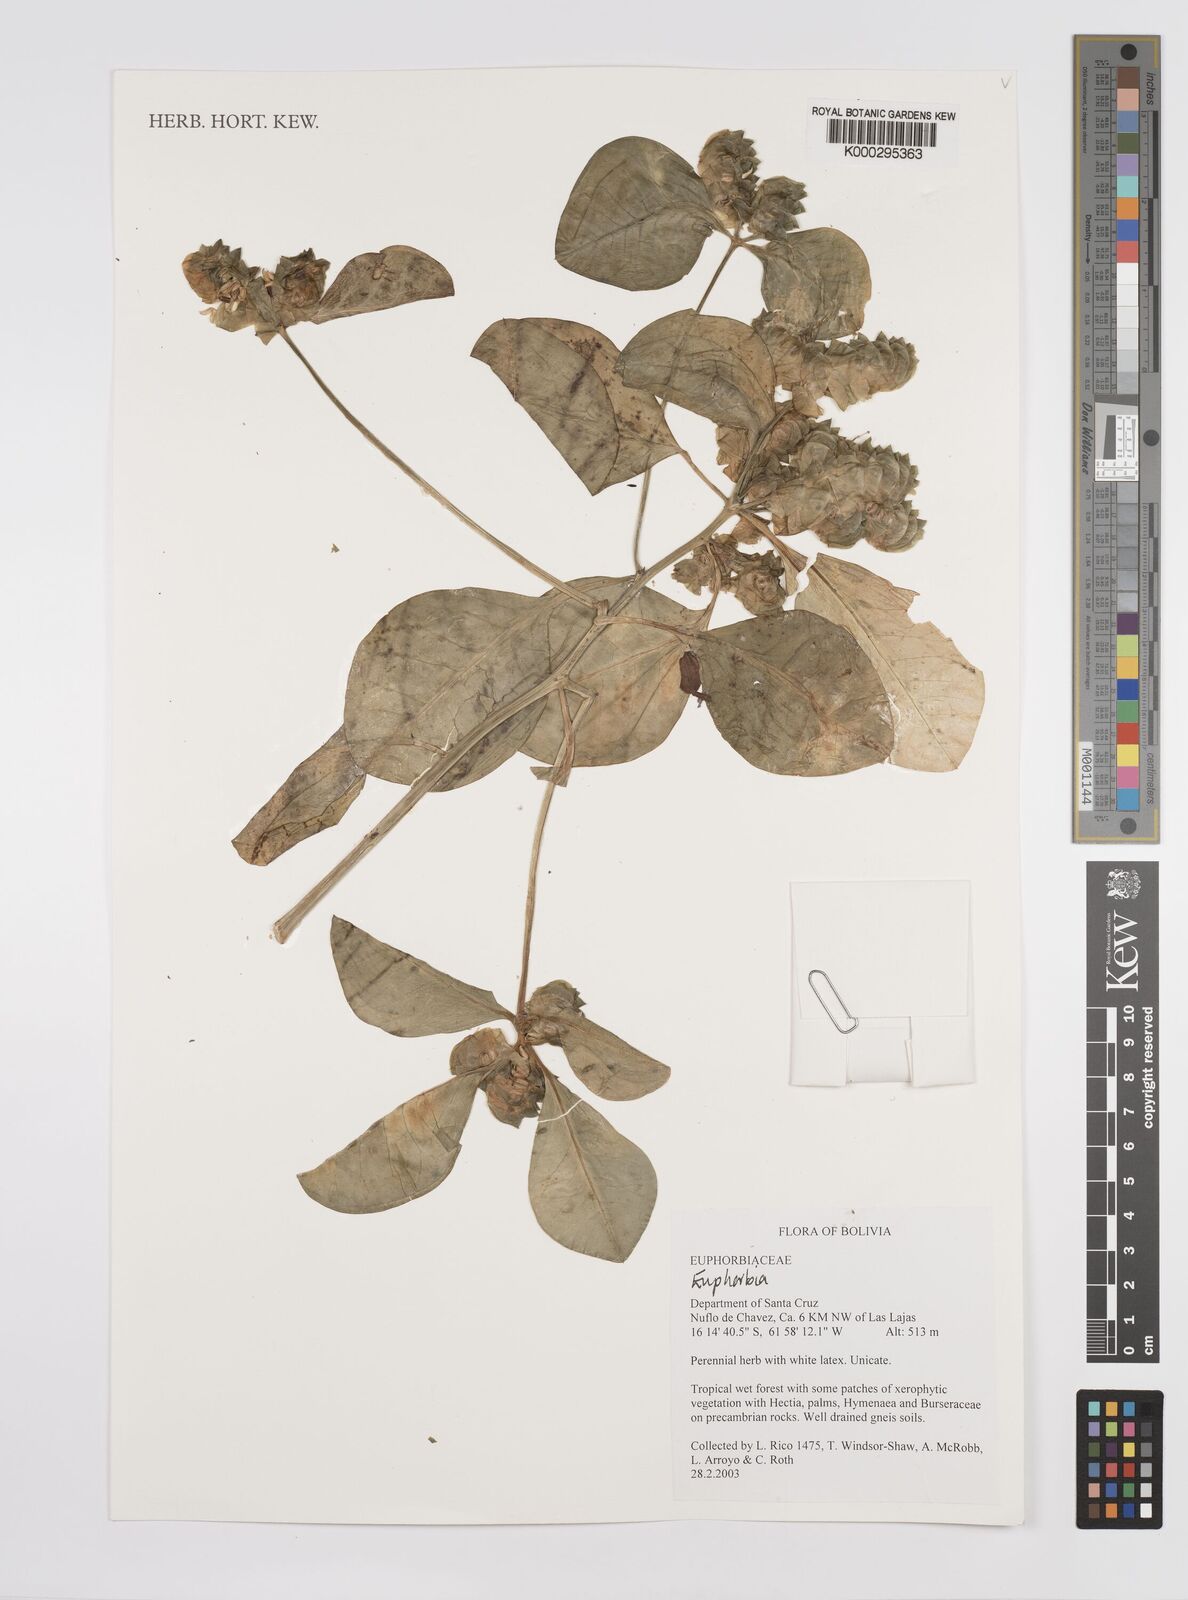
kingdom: Plantae
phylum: Tracheophyta
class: Magnoliopsida
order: Malpighiales
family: Euphorbiaceae
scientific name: Euphorbiaceae
